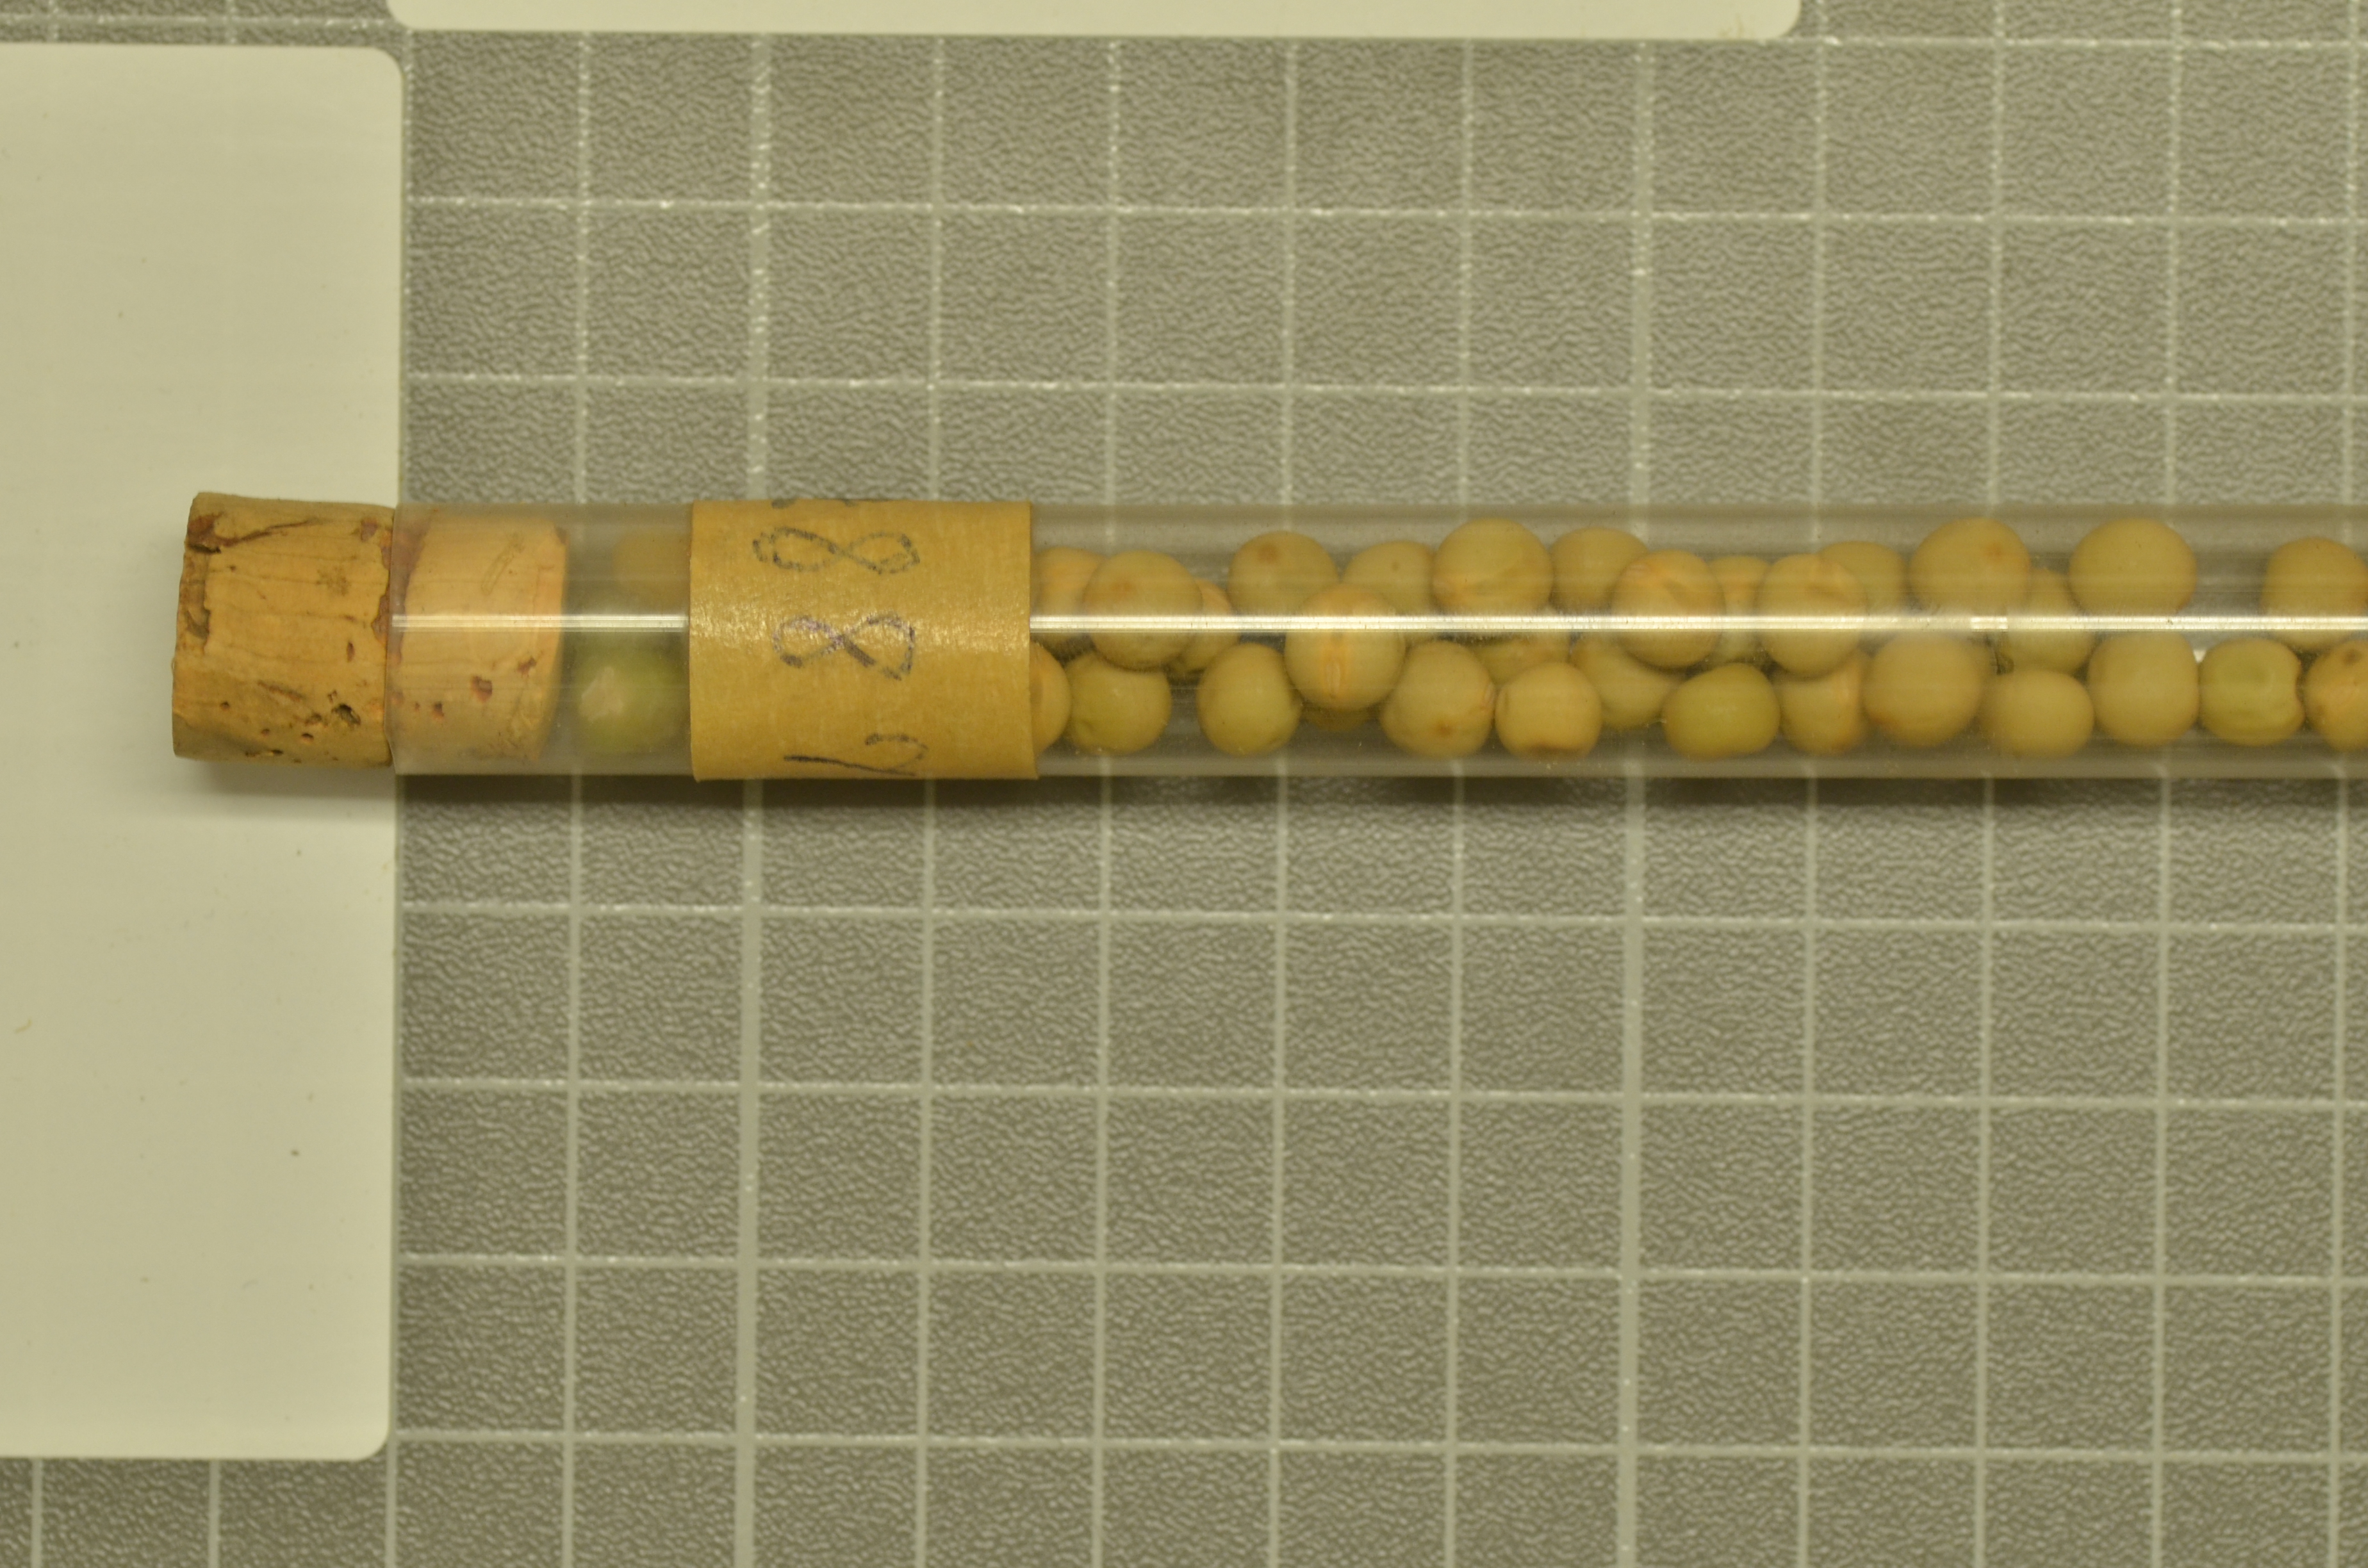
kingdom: Plantae
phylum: Tracheophyta
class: Magnoliopsida
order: Fabales
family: Fabaceae
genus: Lathyrus
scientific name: Lathyrus oleraceus
